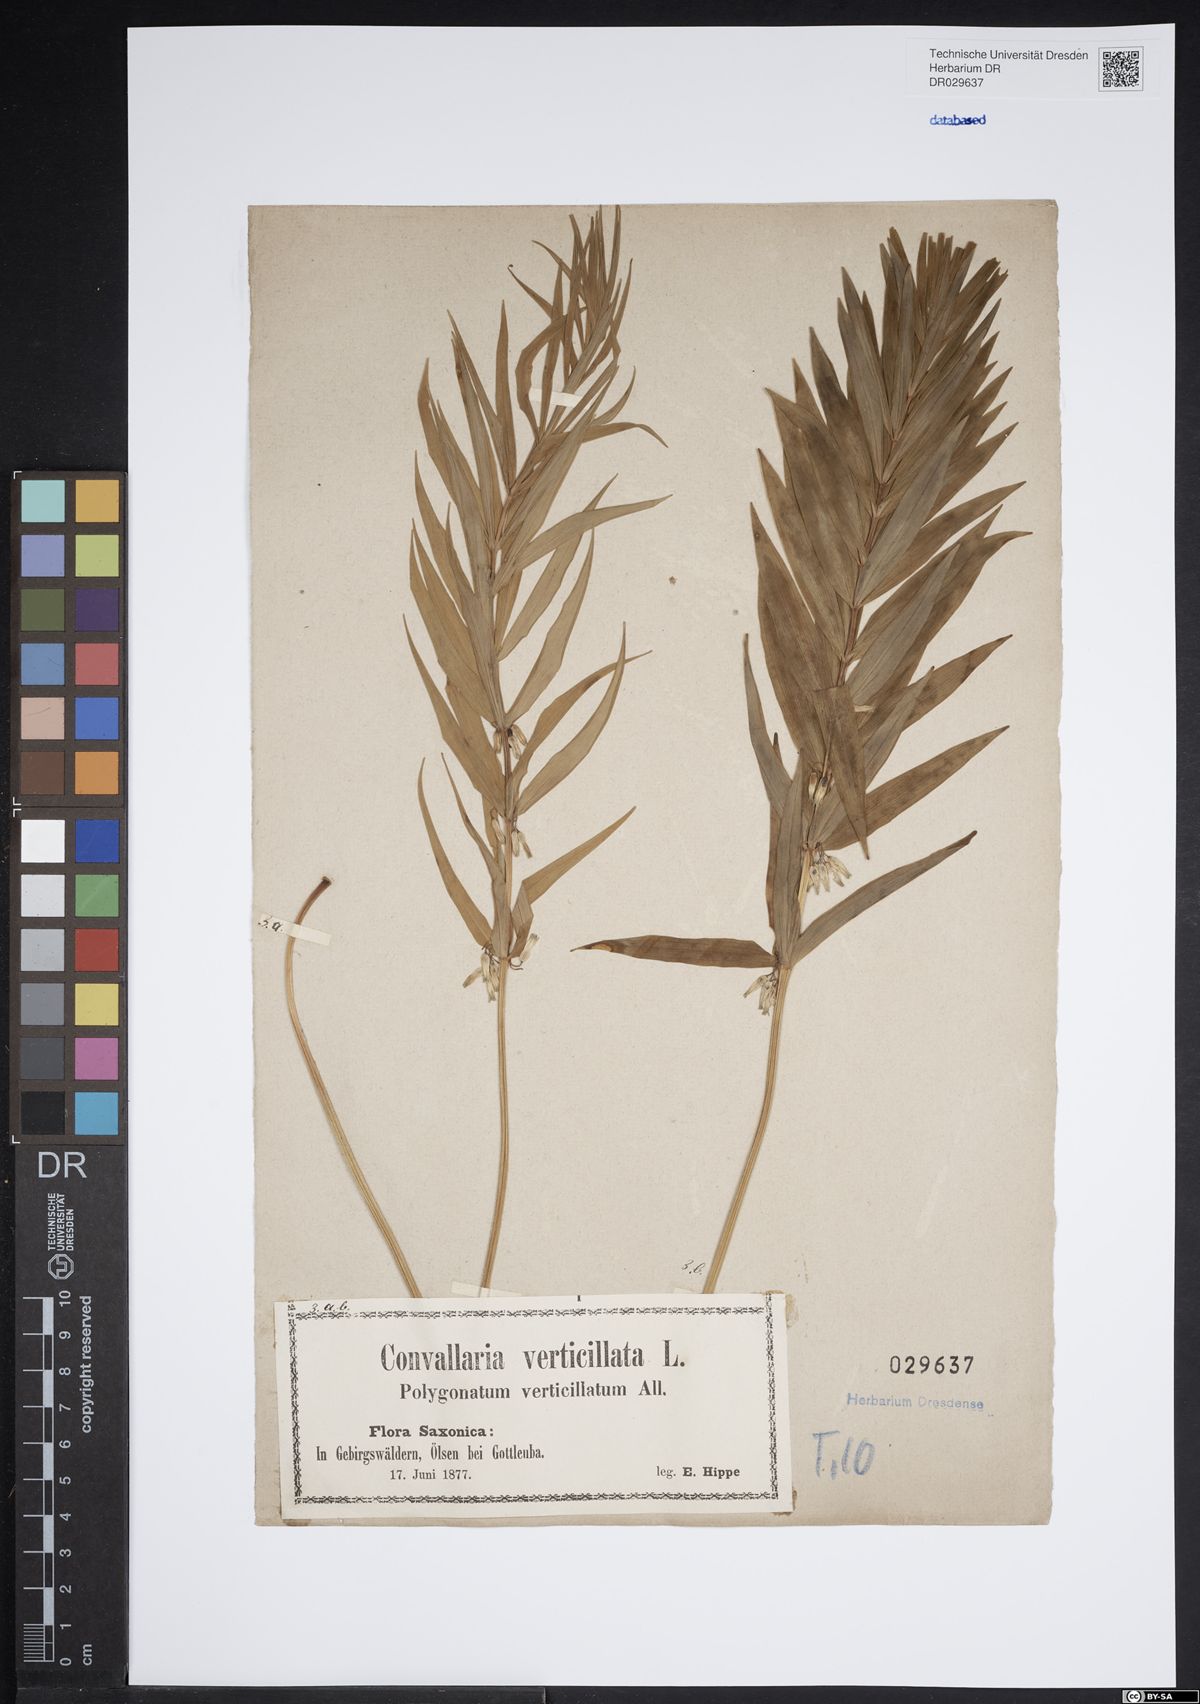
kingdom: Plantae
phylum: Tracheophyta
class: Liliopsida
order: Asparagales
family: Asparagaceae
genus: Polygonatum
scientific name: Polygonatum verticillatum
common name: Whorled solomon's-seal
